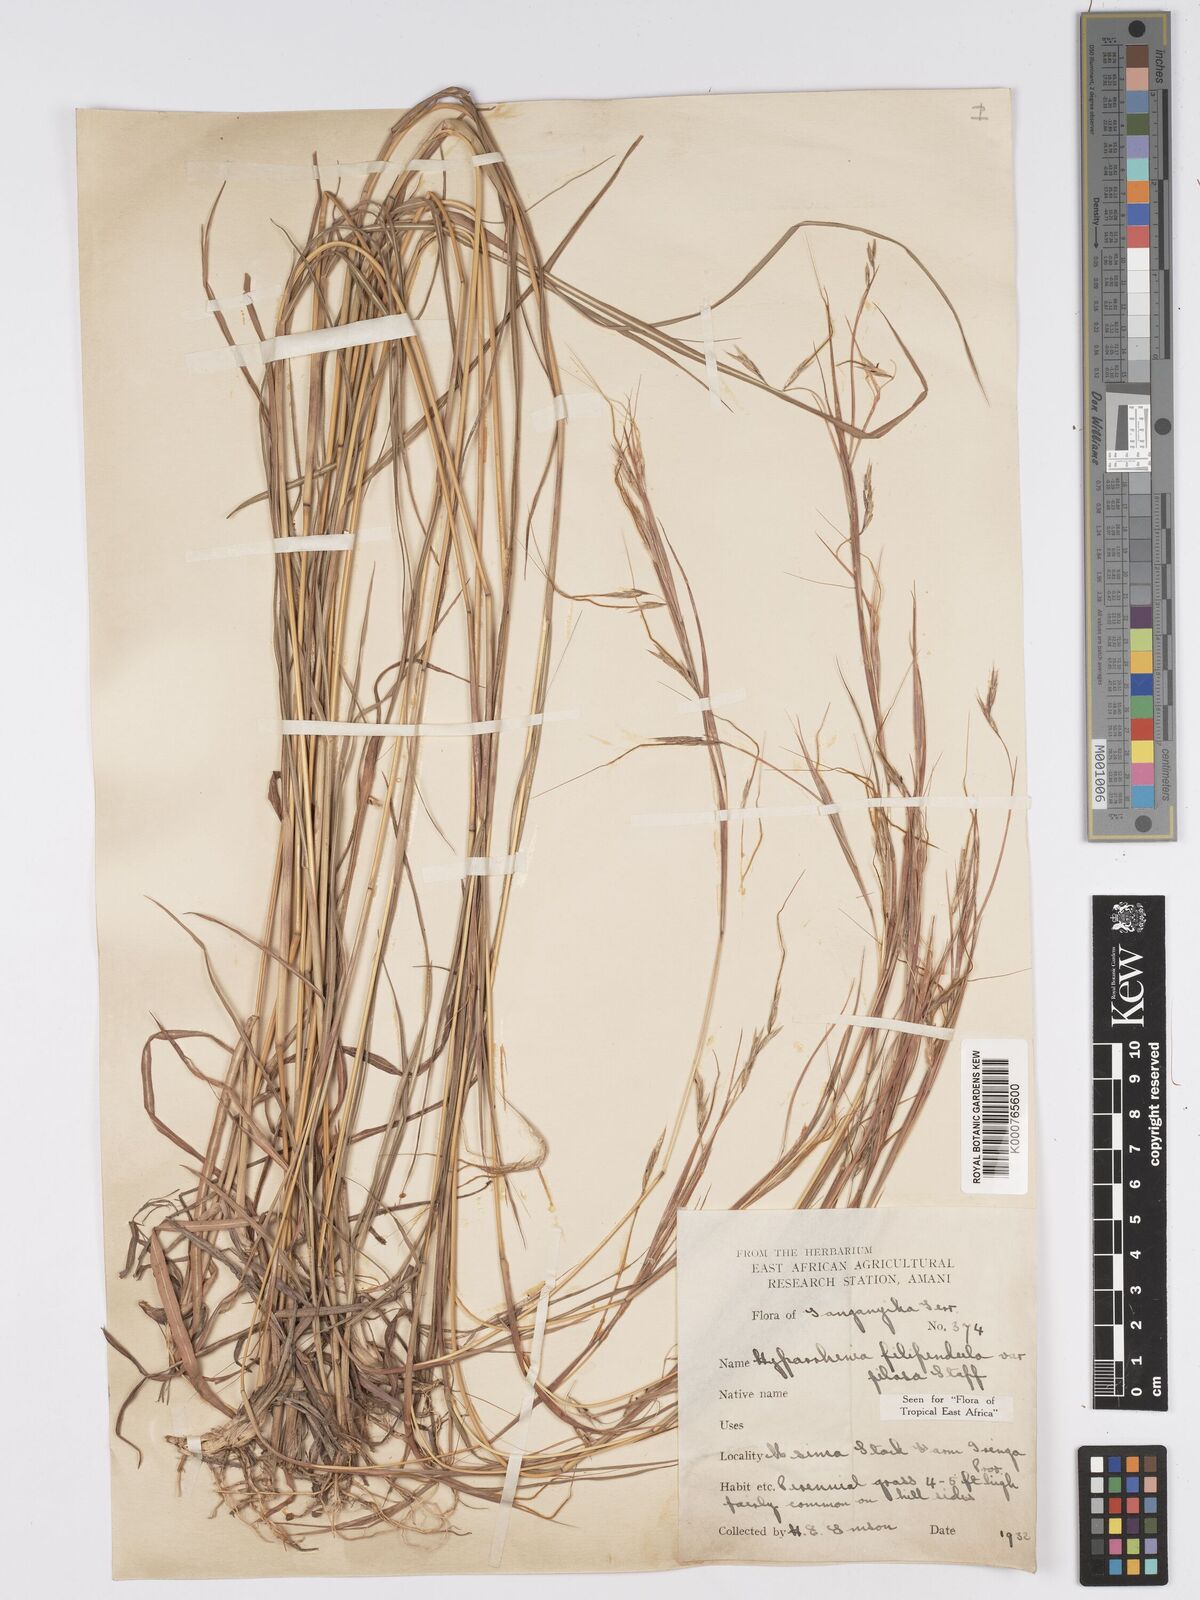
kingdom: Plantae
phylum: Tracheophyta
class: Liliopsida
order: Poales
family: Poaceae
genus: Hyparrhenia
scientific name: Hyparrhenia filipendula
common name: Tambookie grass
